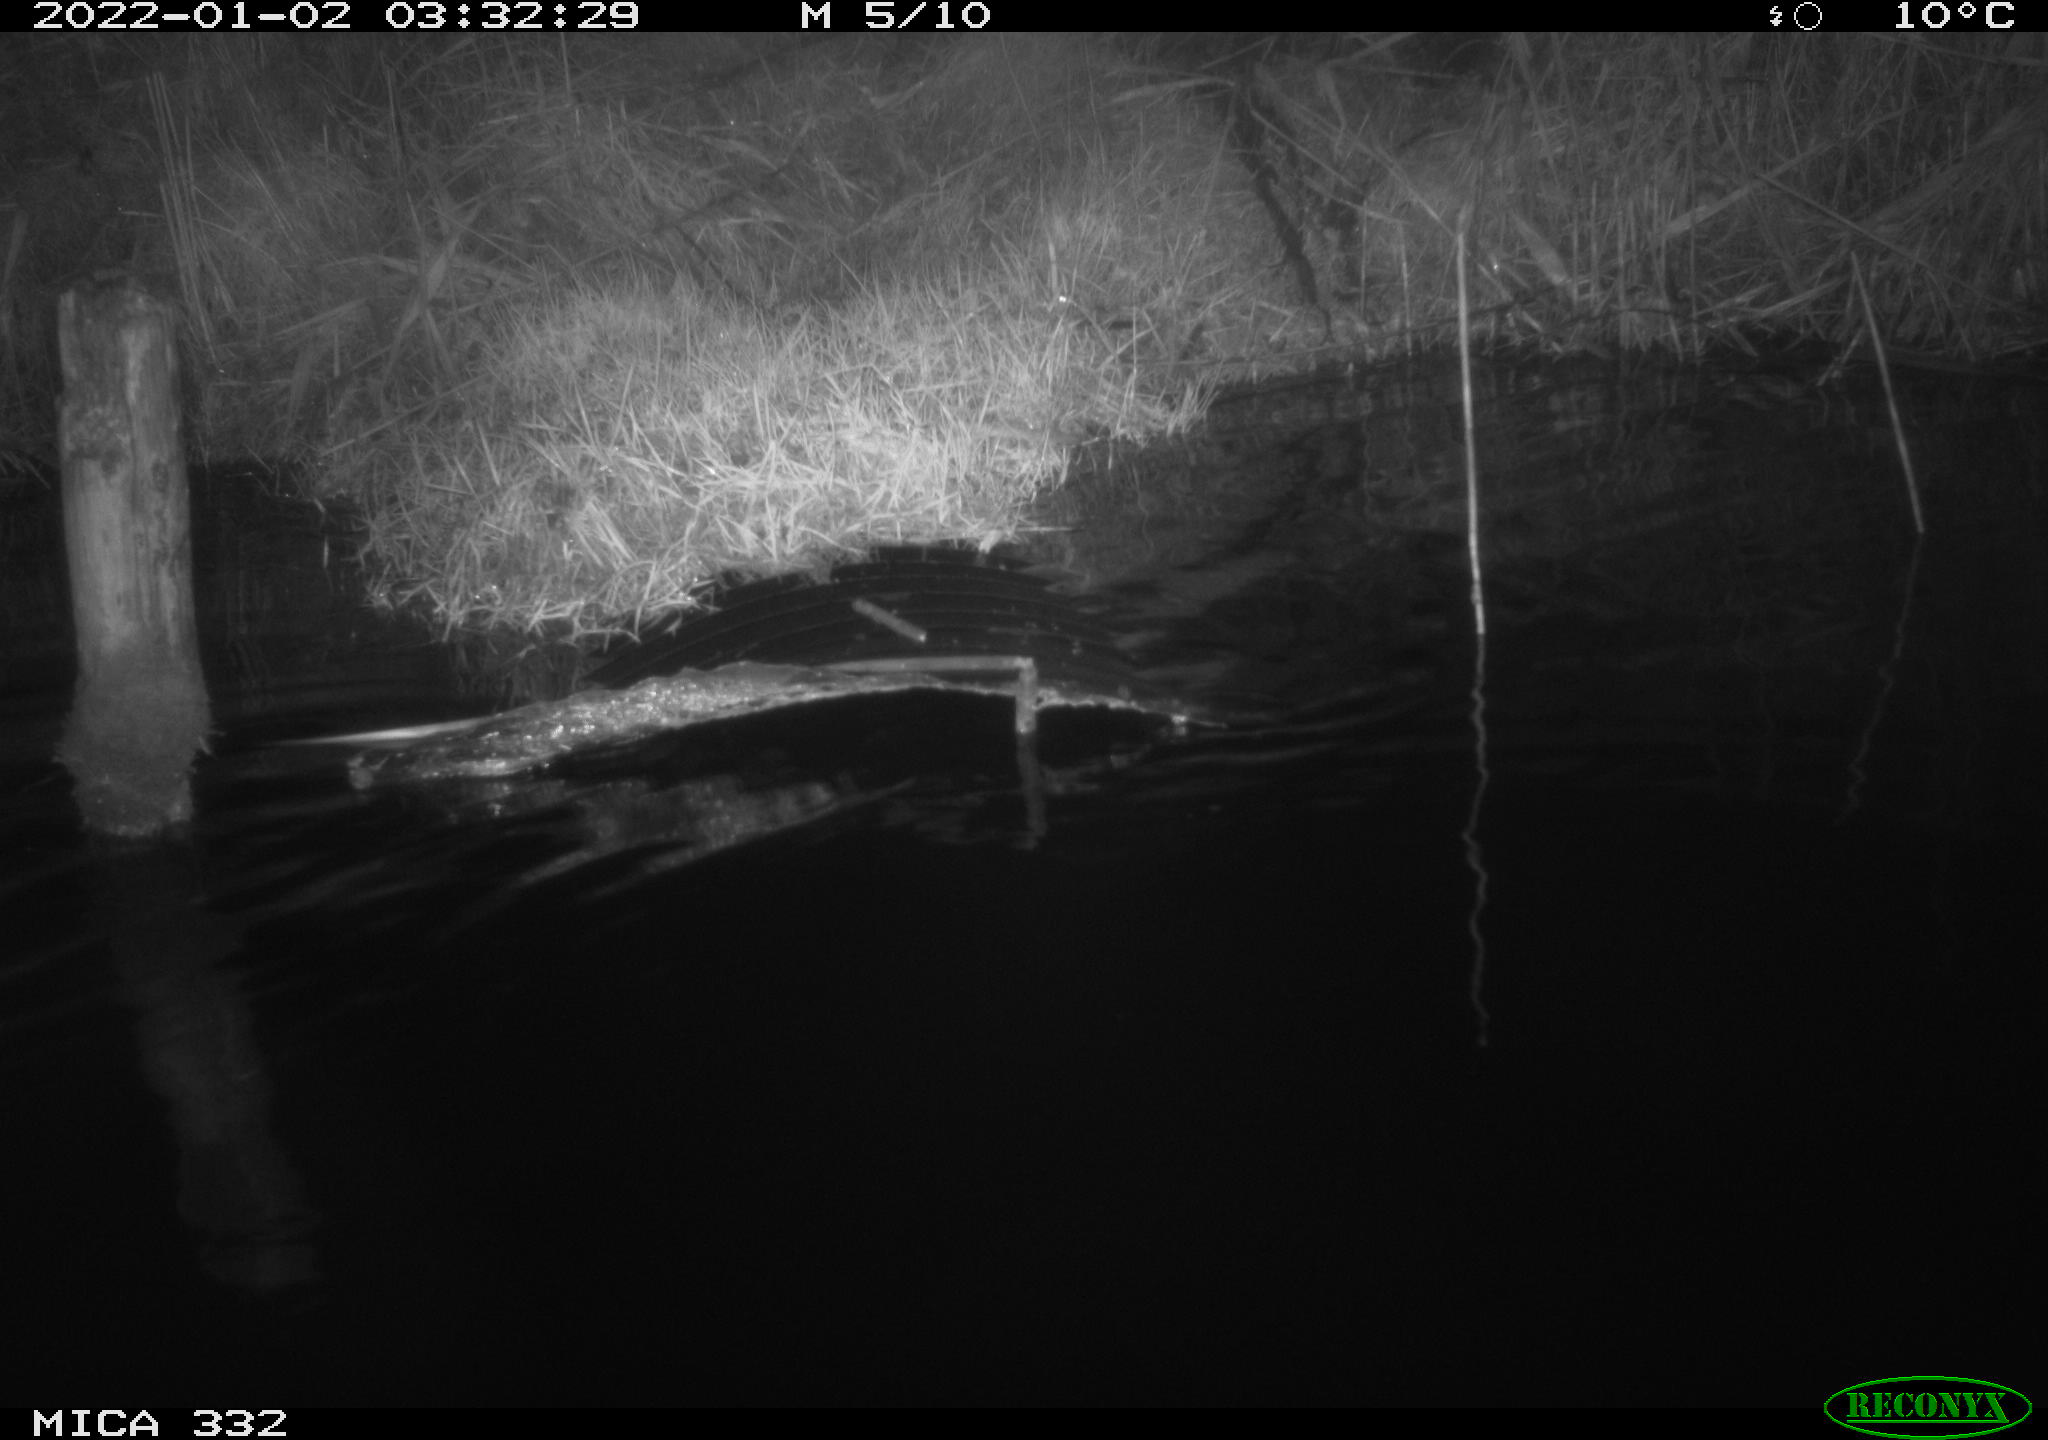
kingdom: Animalia
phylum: Chordata
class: Aves
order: Anseriformes
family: Anatidae
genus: Cygnus
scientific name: Cygnus olor
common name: Mute swan
